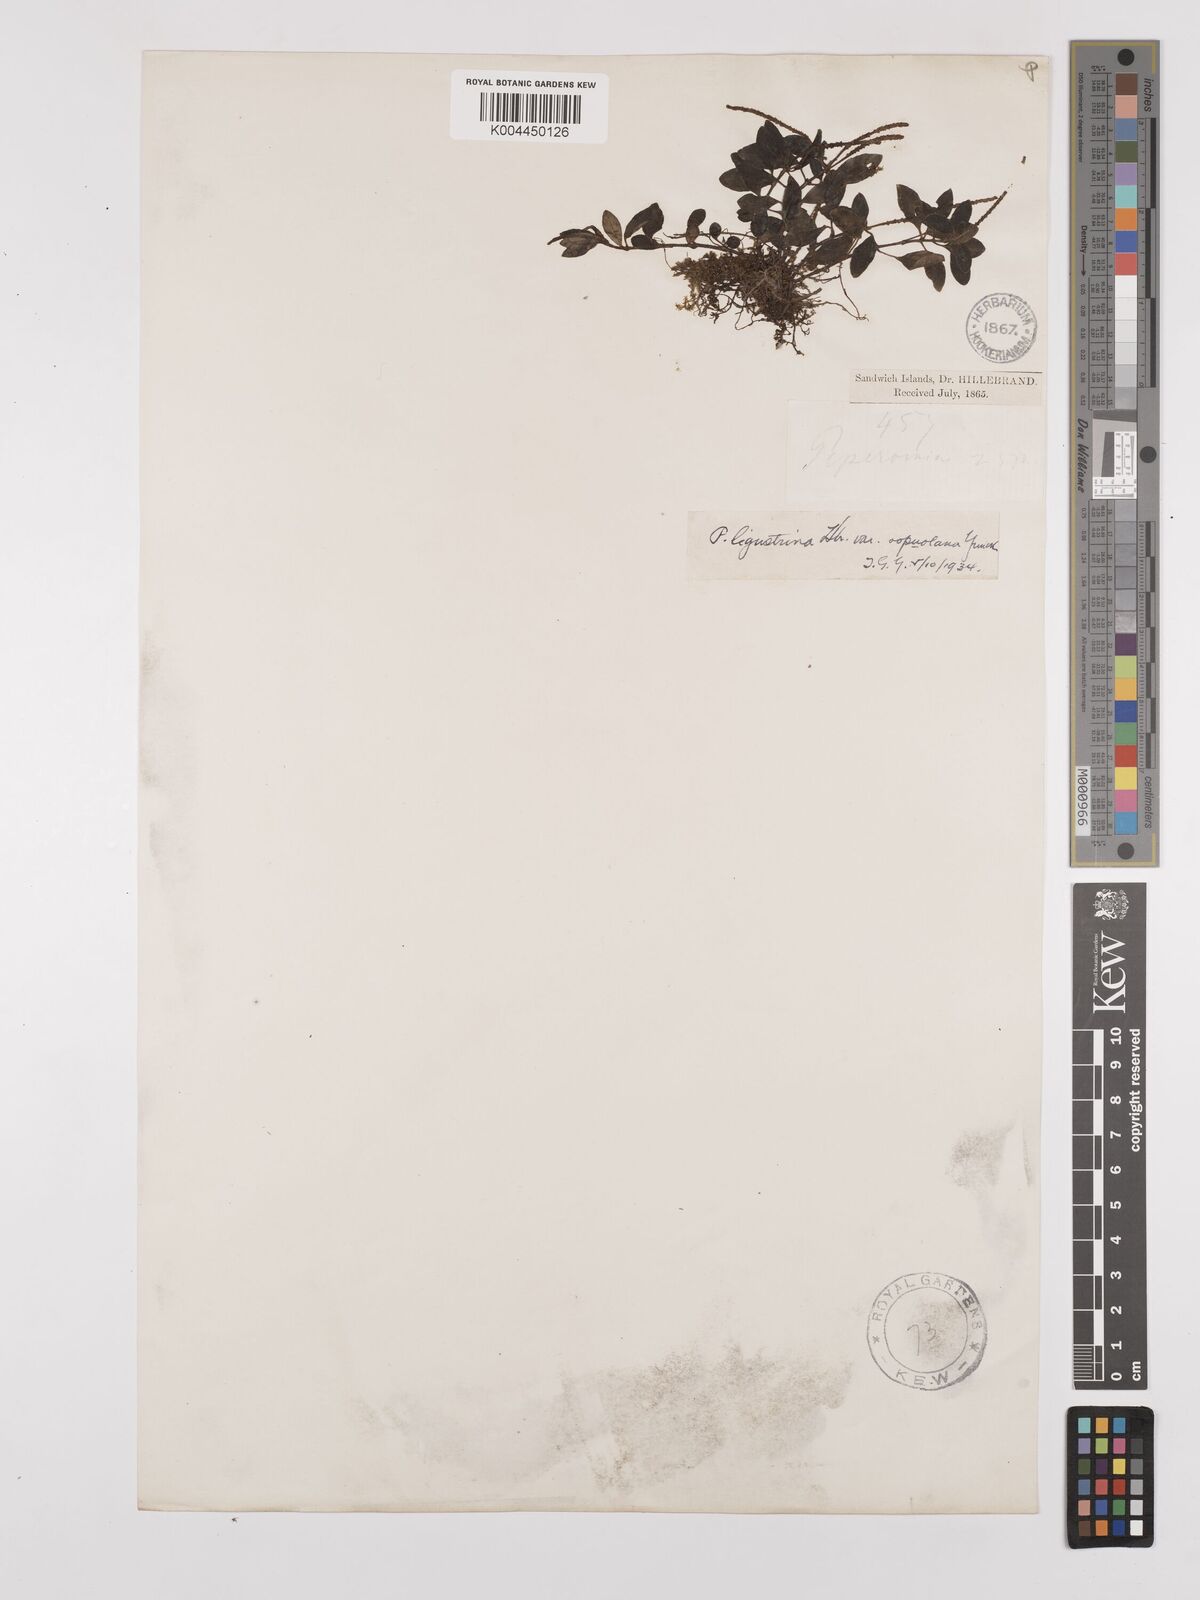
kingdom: Plantae
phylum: Tracheophyta
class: Magnoliopsida
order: Piperales
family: Piperaceae
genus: Peperomia
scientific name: Peperomia ligustrina
